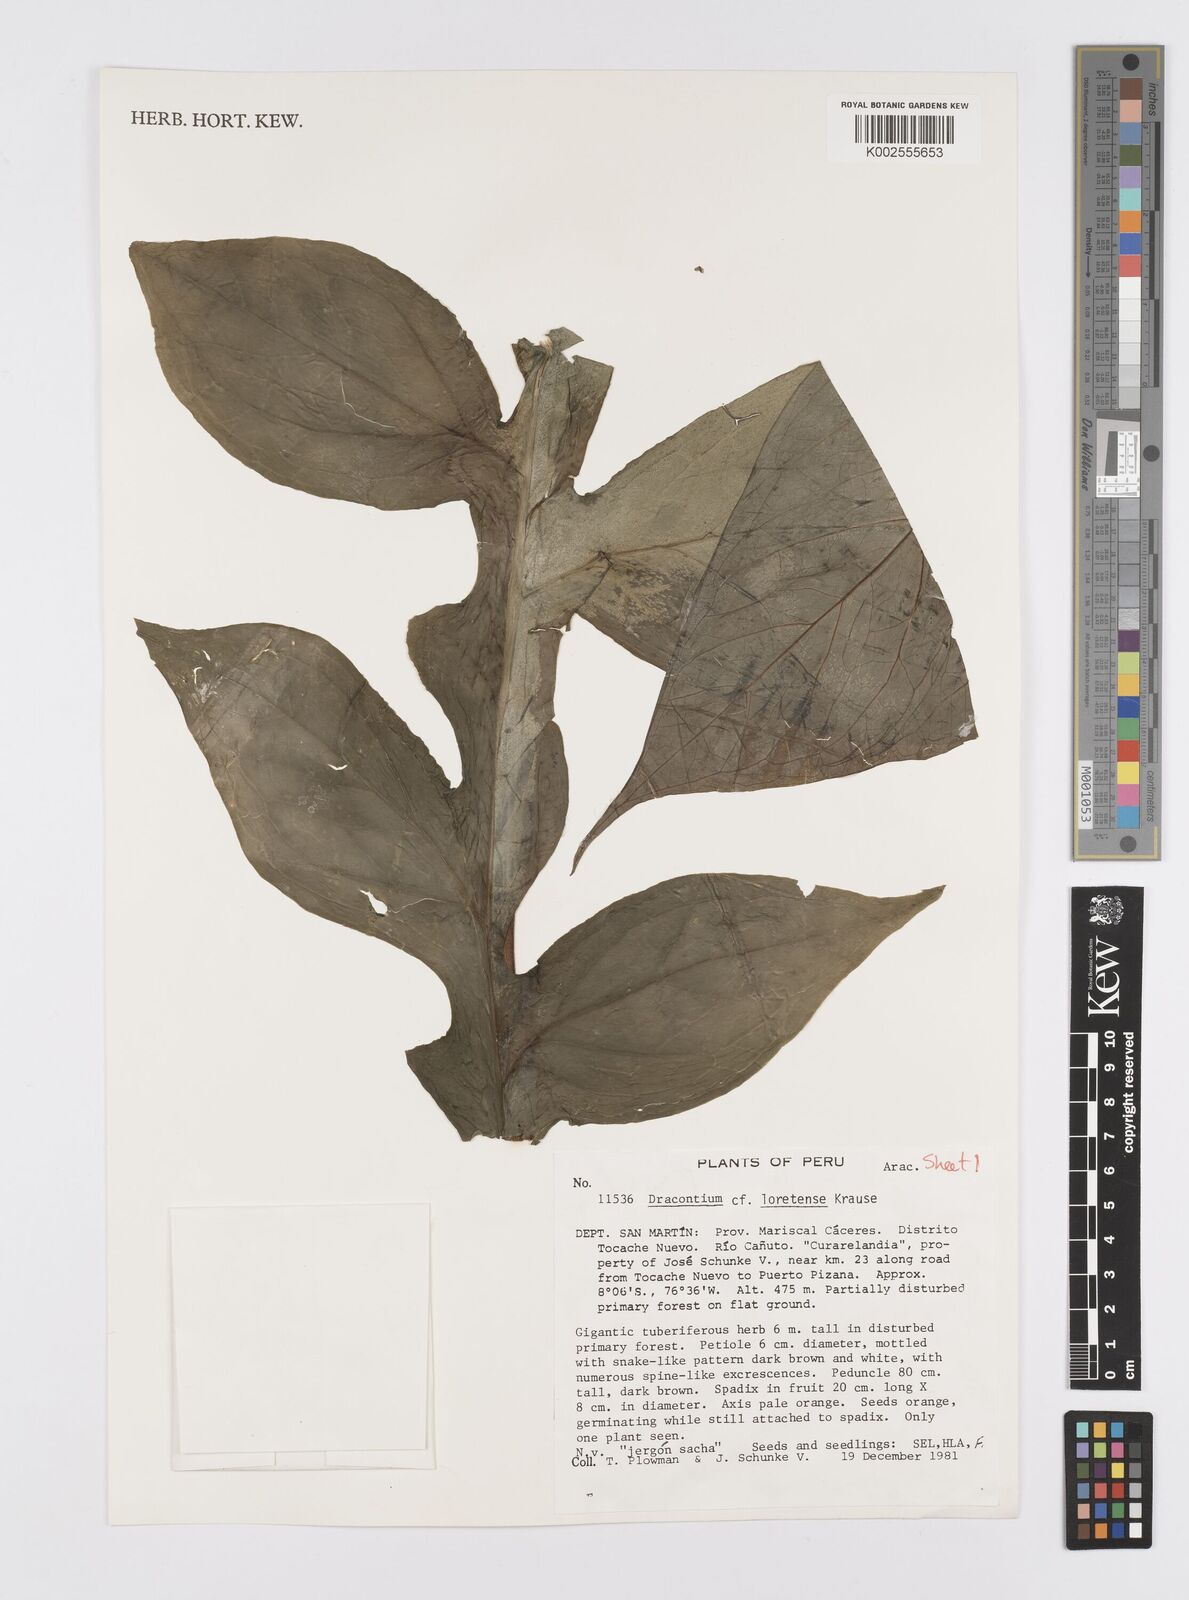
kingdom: Plantae
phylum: Tracheophyta
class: Liliopsida
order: Alismatales
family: Araceae
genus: Dracontium
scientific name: Dracontium spruceanum
